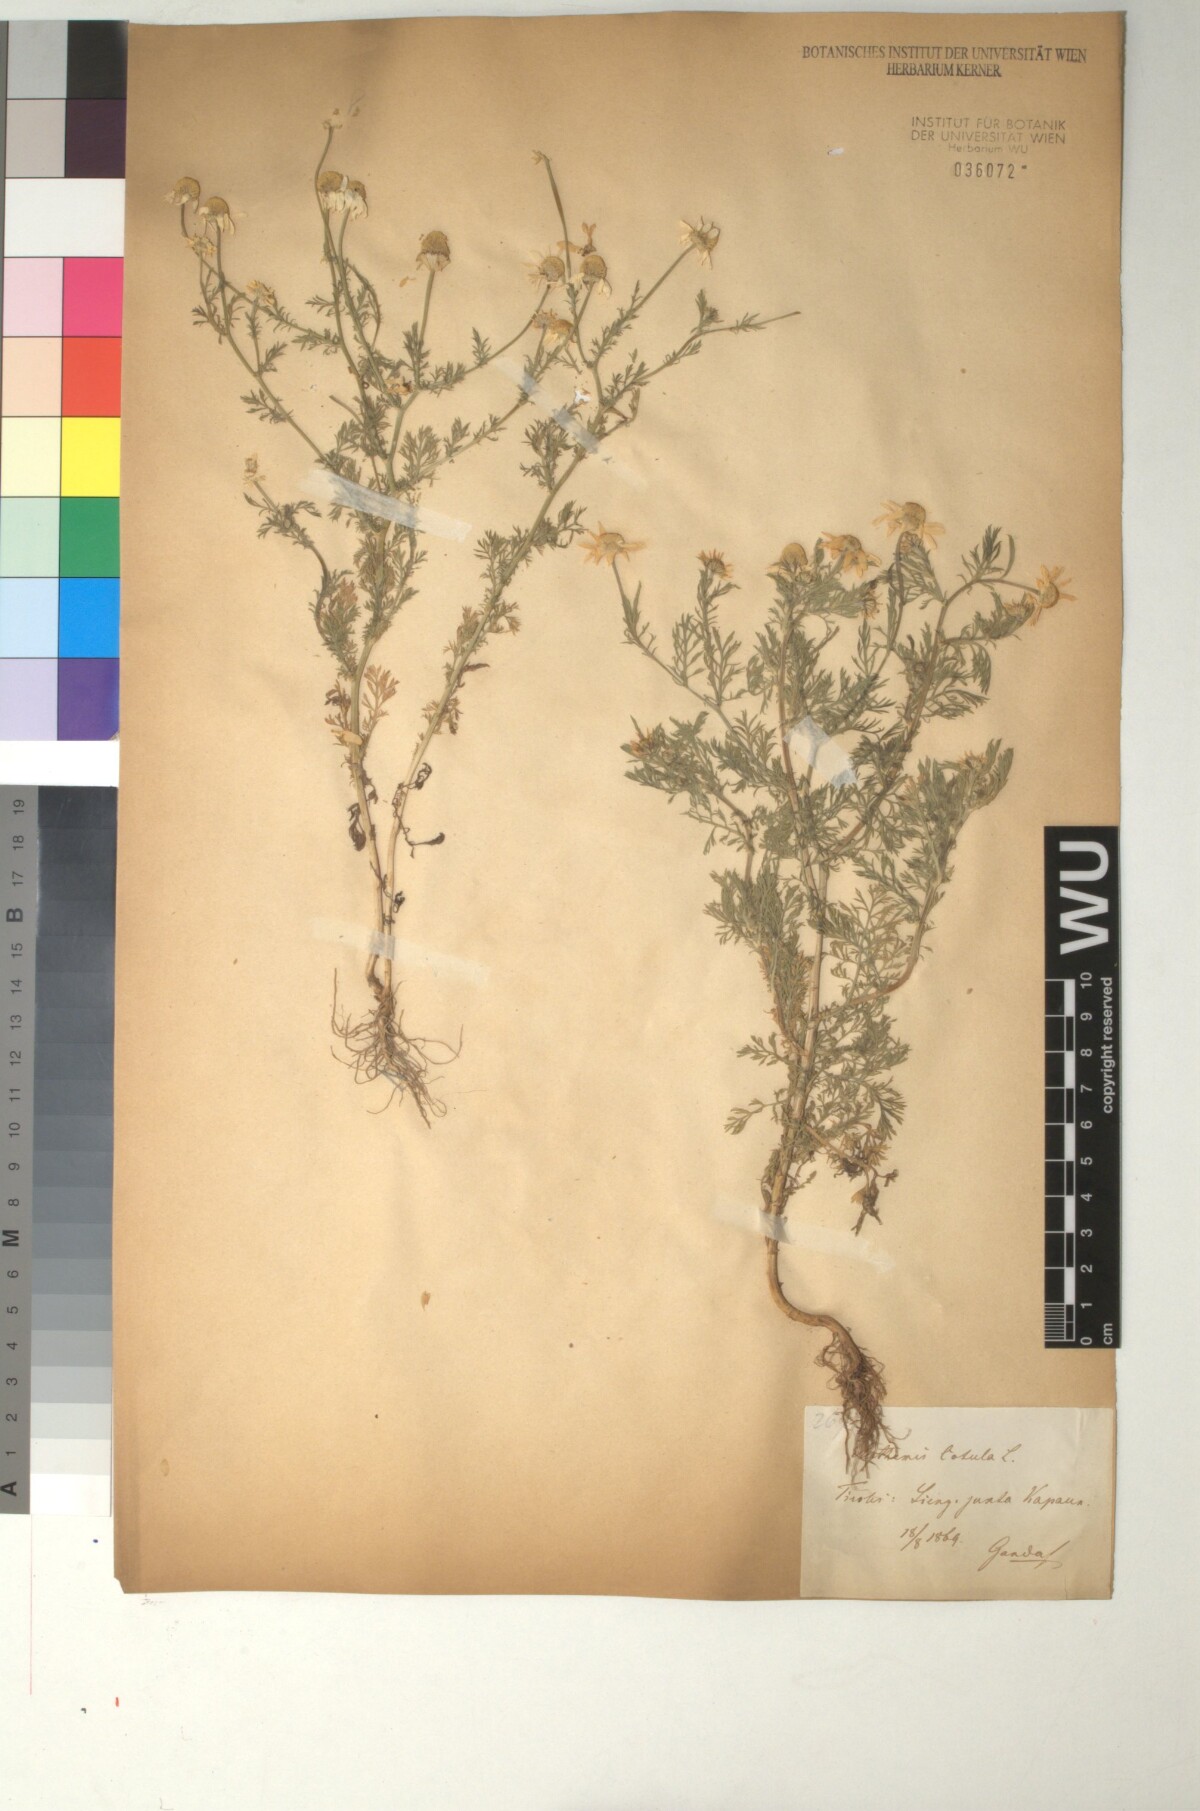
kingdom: Plantae
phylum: Tracheophyta
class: Magnoliopsida
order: Asterales
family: Asteraceae
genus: Anthemis
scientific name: Anthemis cotula
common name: Stinking chamomile
